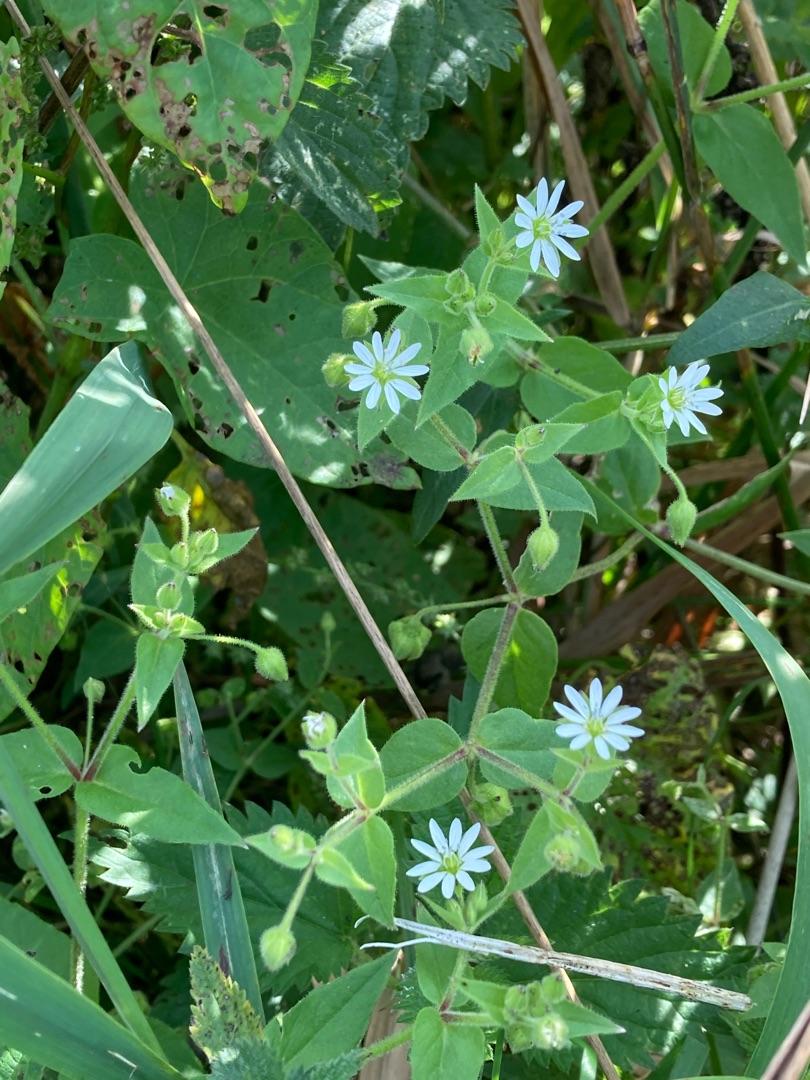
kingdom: Plantae
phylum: Tracheophyta
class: Magnoliopsida
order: Caryophyllales
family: Caryophyllaceae
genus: Stellaria
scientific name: Stellaria aquatica
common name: Kløvkrone
